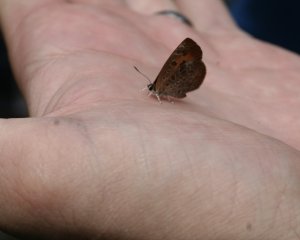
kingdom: Animalia
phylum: Arthropoda
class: Insecta
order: Lepidoptera
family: Lycaenidae
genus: Feniseca
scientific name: Feniseca tarquinius
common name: Harvester
